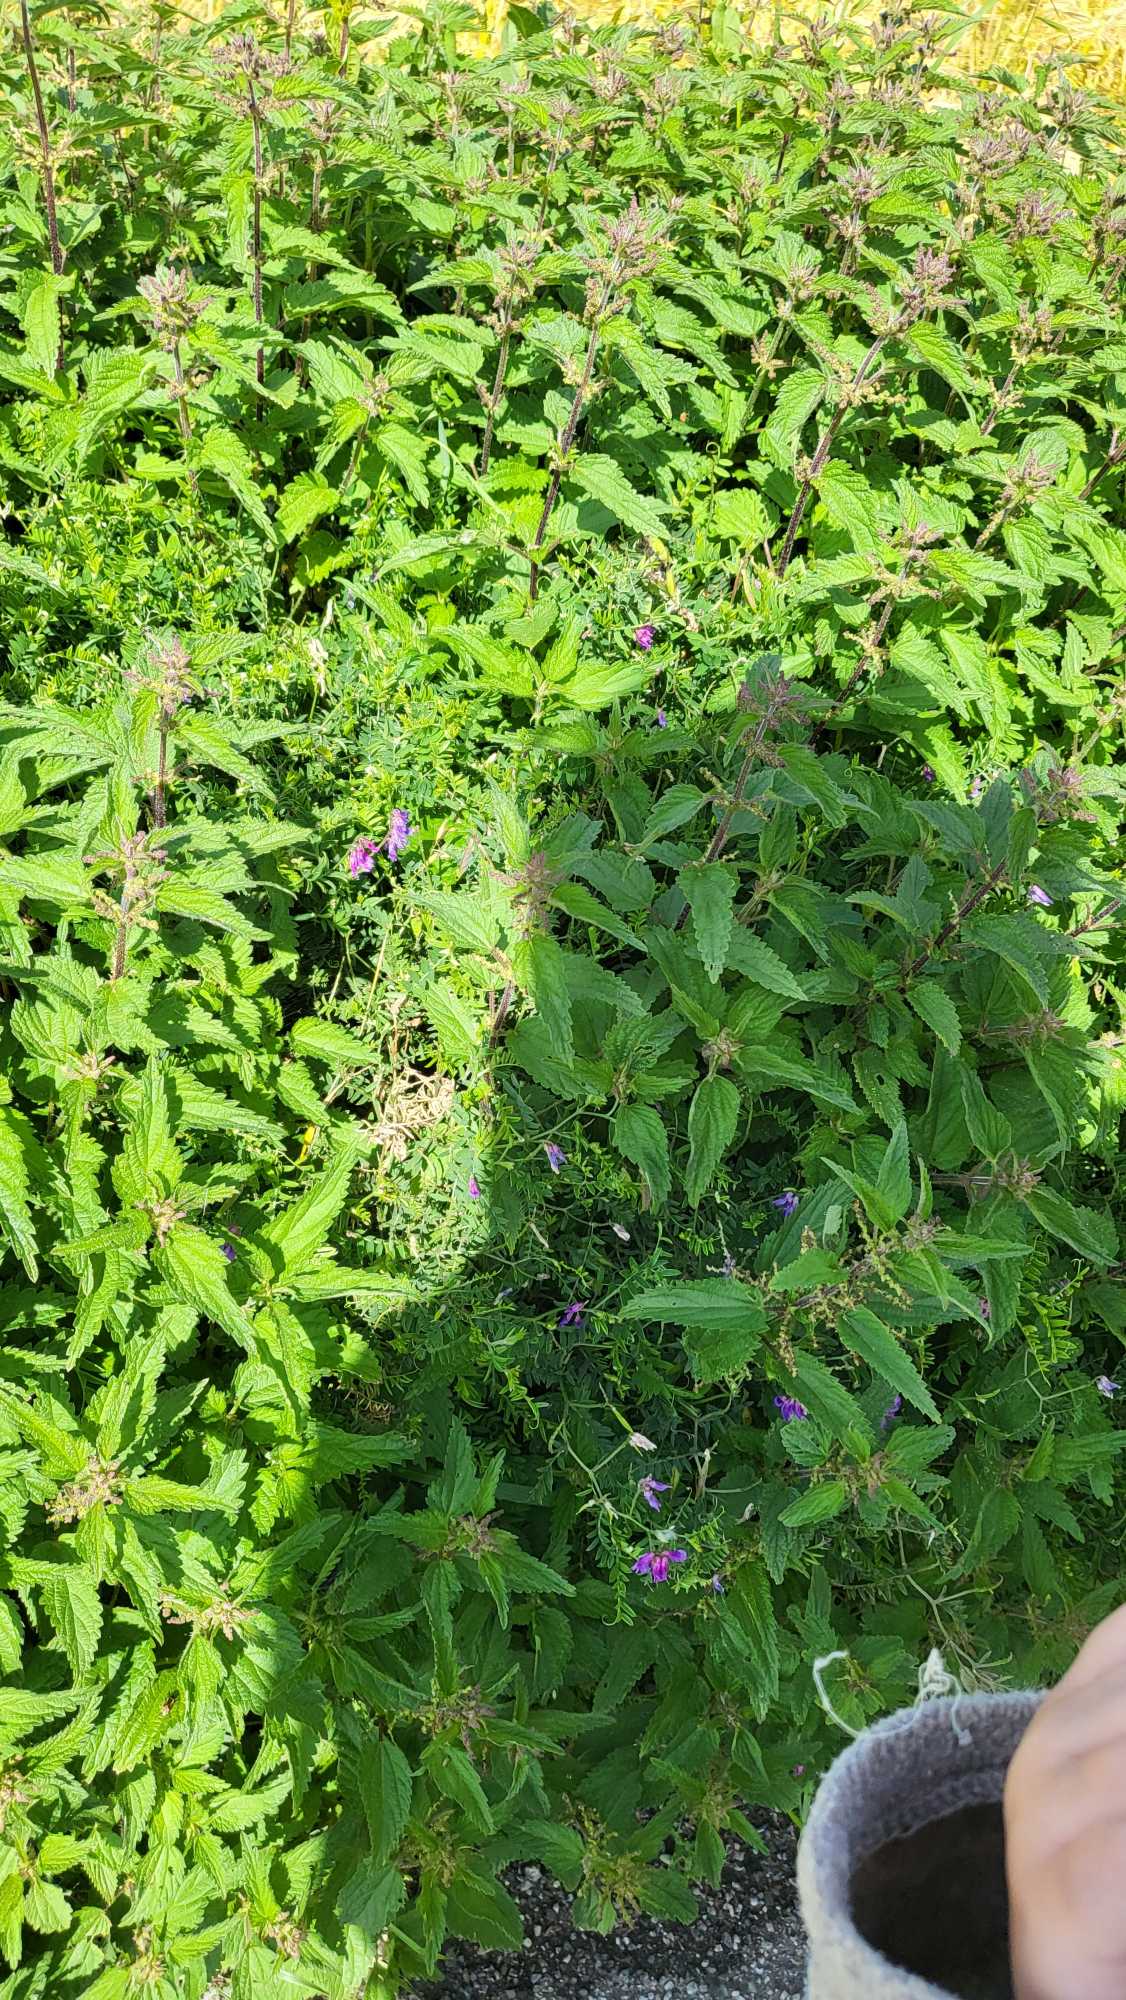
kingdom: Plantae
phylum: Tracheophyta
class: Magnoliopsida
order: Rosales
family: Urticaceae
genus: Urtica
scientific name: Urtica dioica
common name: Stor nælde
